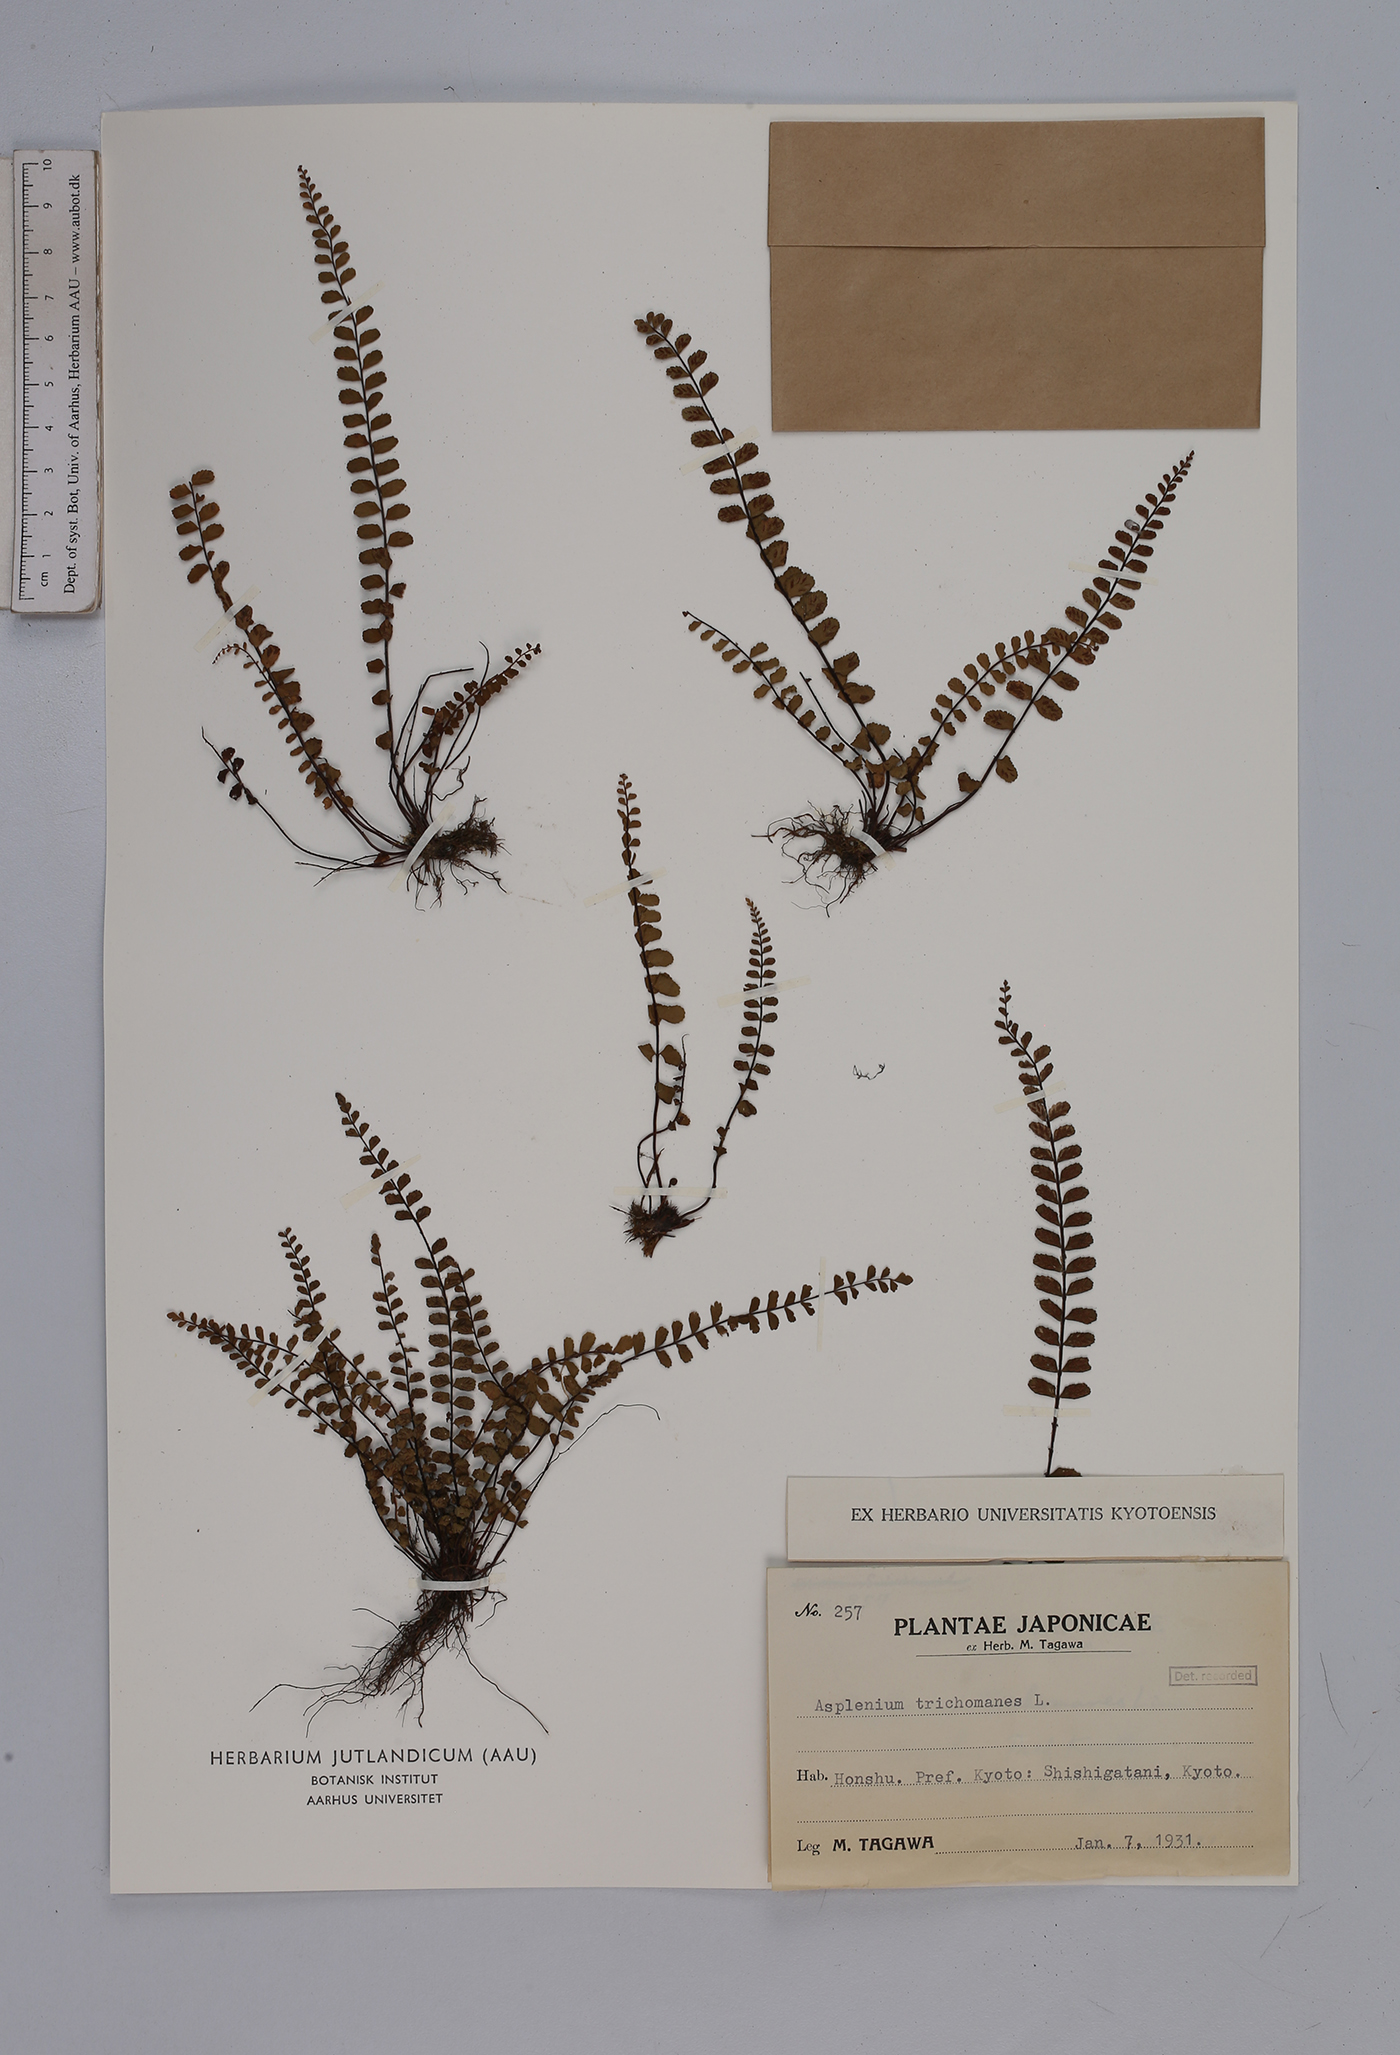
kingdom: Plantae
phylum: Tracheophyta
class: Polypodiopsida
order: Polypodiales
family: Aspleniaceae
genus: Asplenium
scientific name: Asplenium trichomanes
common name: Maidenhair spleenwort
